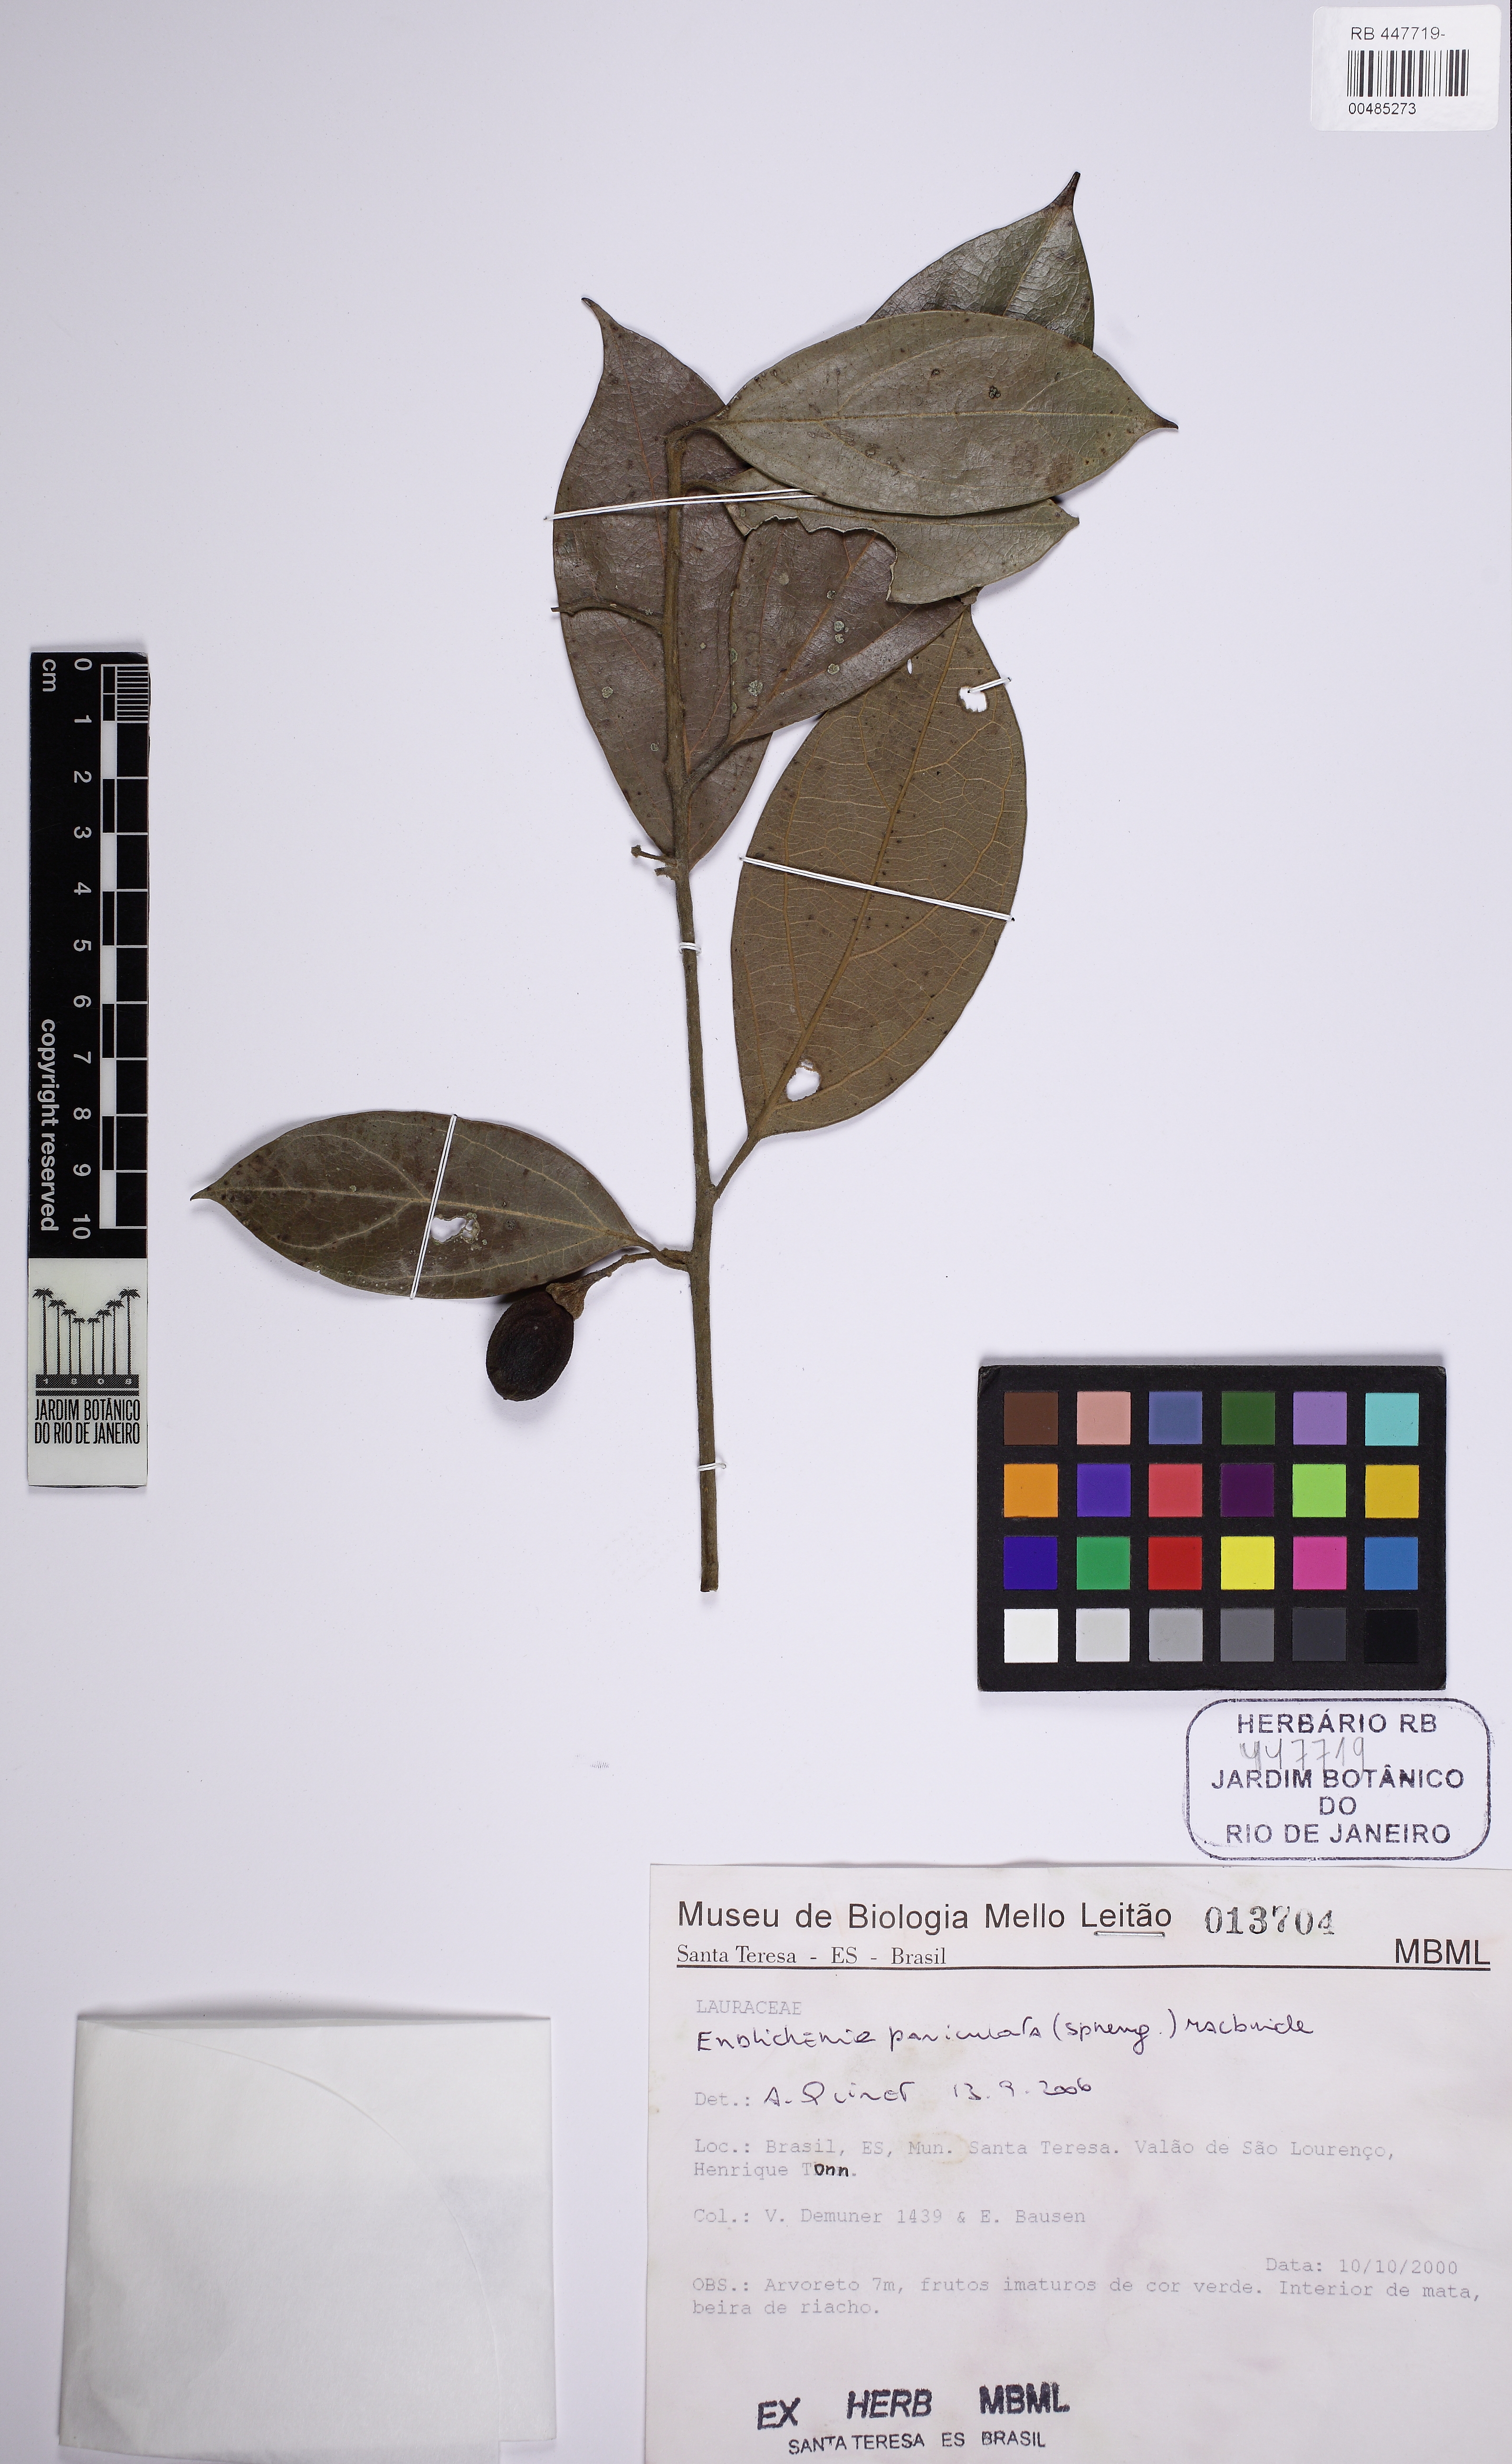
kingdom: Plantae
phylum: Tracheophyta
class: Magnoliopsida
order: Laurales
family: Lauraceae
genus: Endlicheria
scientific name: Endlicheria paniculata
